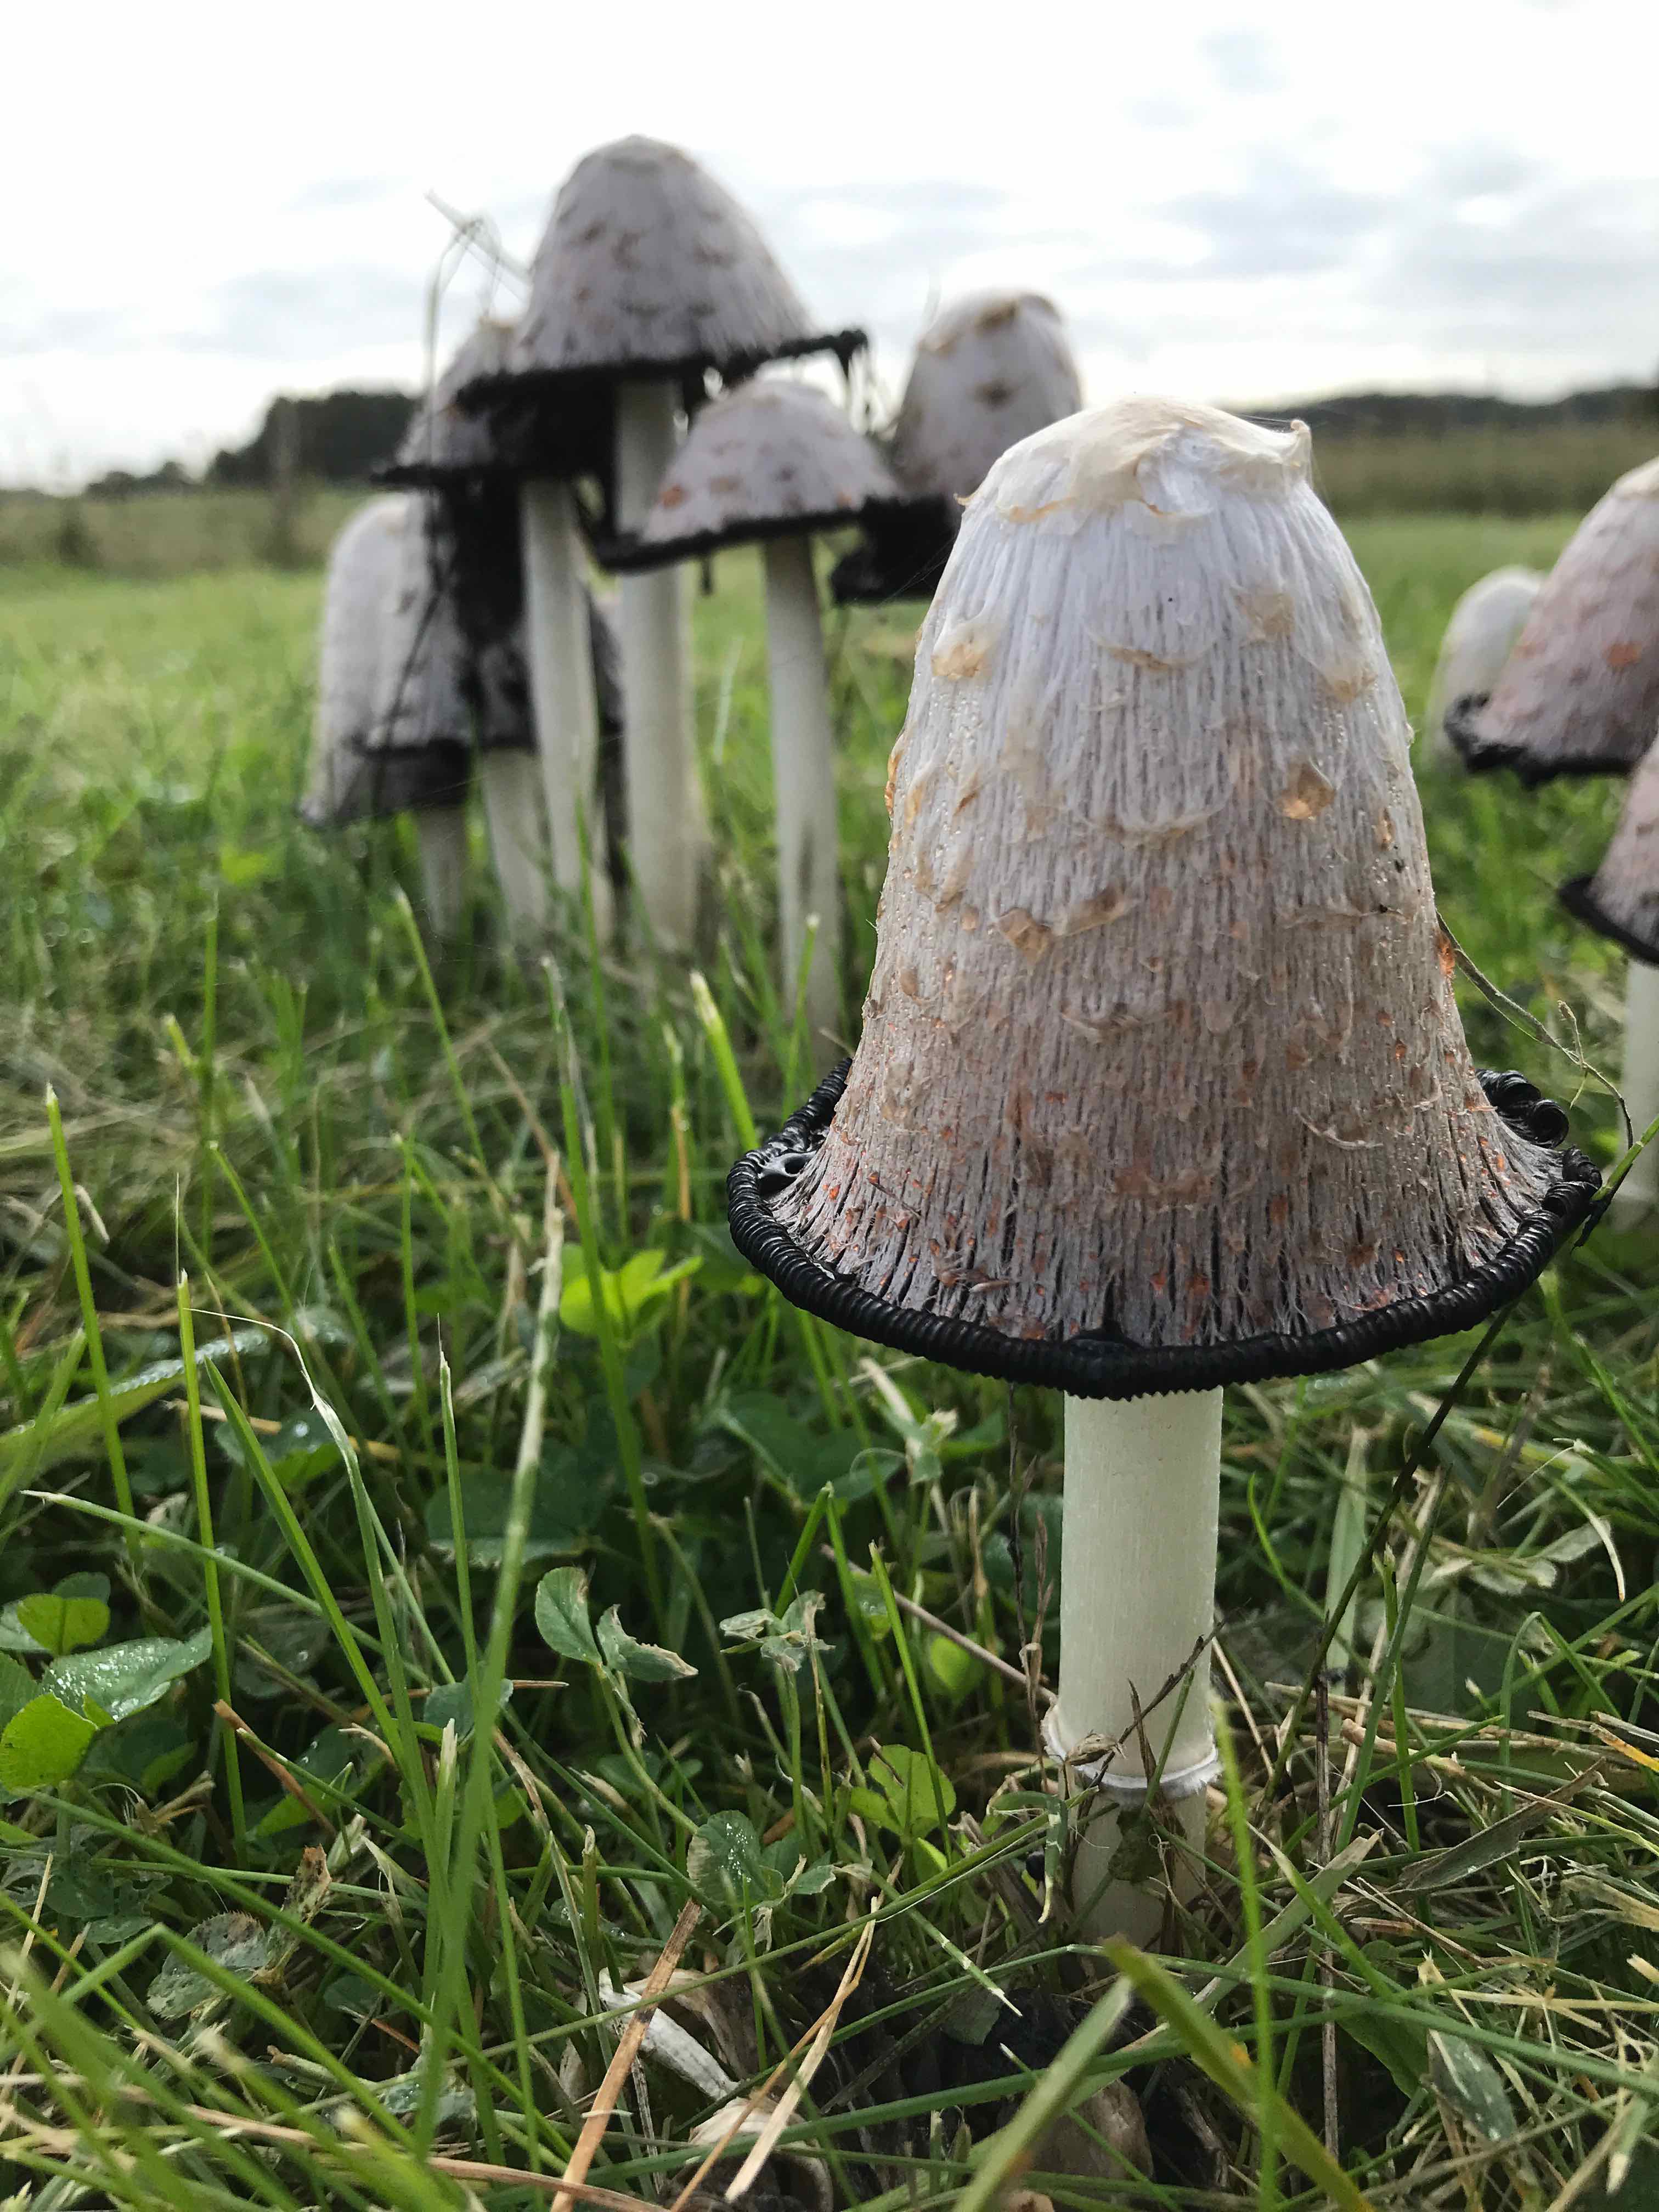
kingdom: Fungi
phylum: Basidiomycota
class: Agaricomycetes
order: Agaricales
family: Agaricaceae
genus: Coprinus
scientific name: Coprinus comatus
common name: stor parykhat
